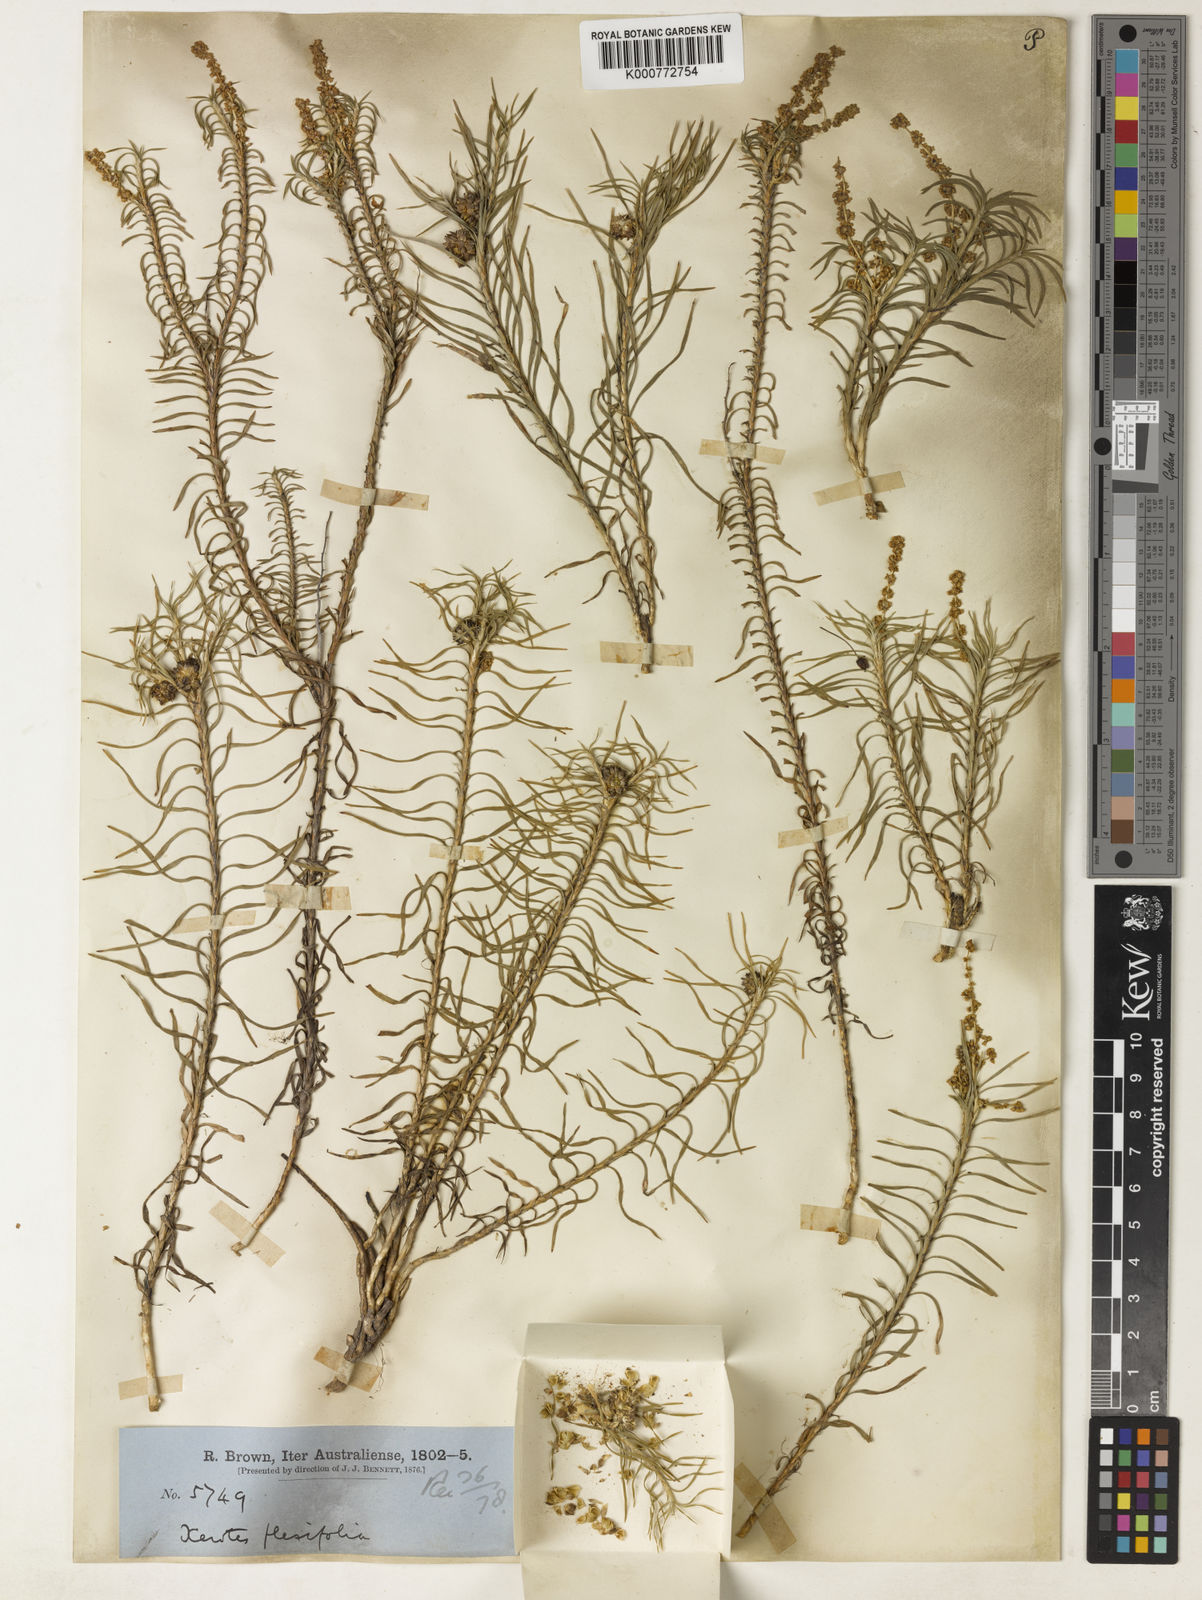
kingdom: Plantae
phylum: Tracheophyta
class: Liliopsida
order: Asparagales
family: Asparagaceae
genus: Lomandra
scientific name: Lomandra obliqua
